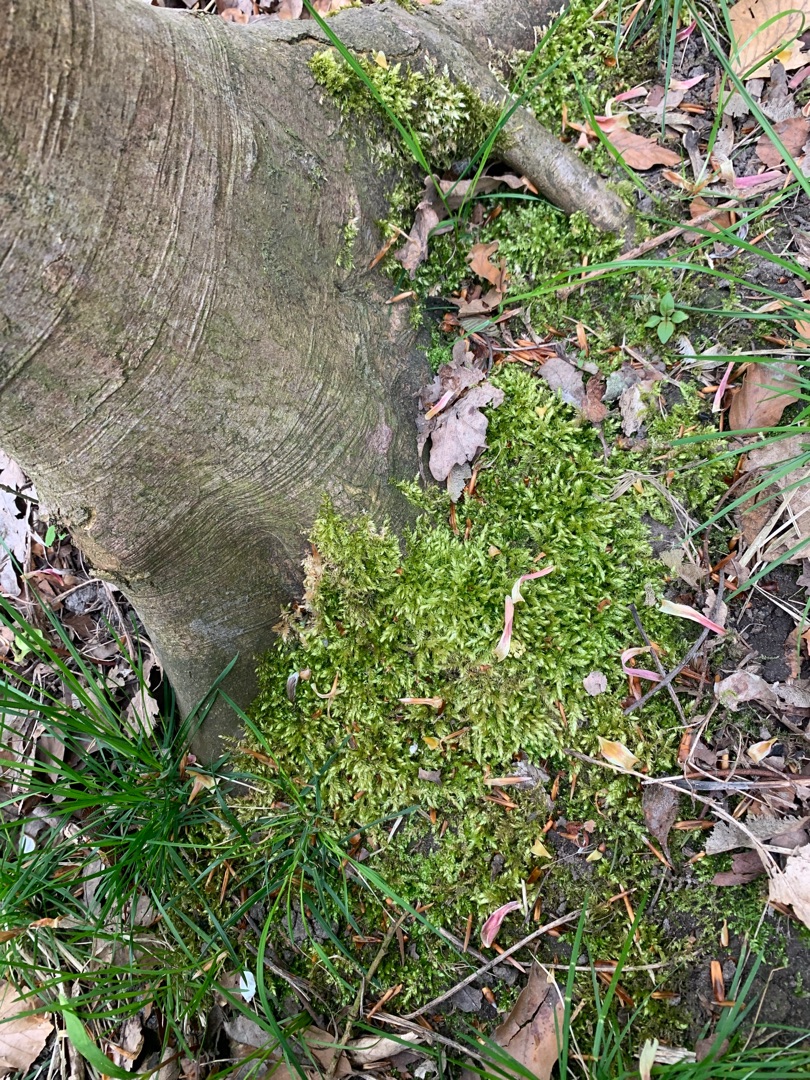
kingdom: Plantae
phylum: Bryophyta
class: Bryopsida
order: Hypnales
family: Brachytheciaceae
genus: Brachythecium
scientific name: Brachythecium rutabulum
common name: Almindelig kortkapsel
